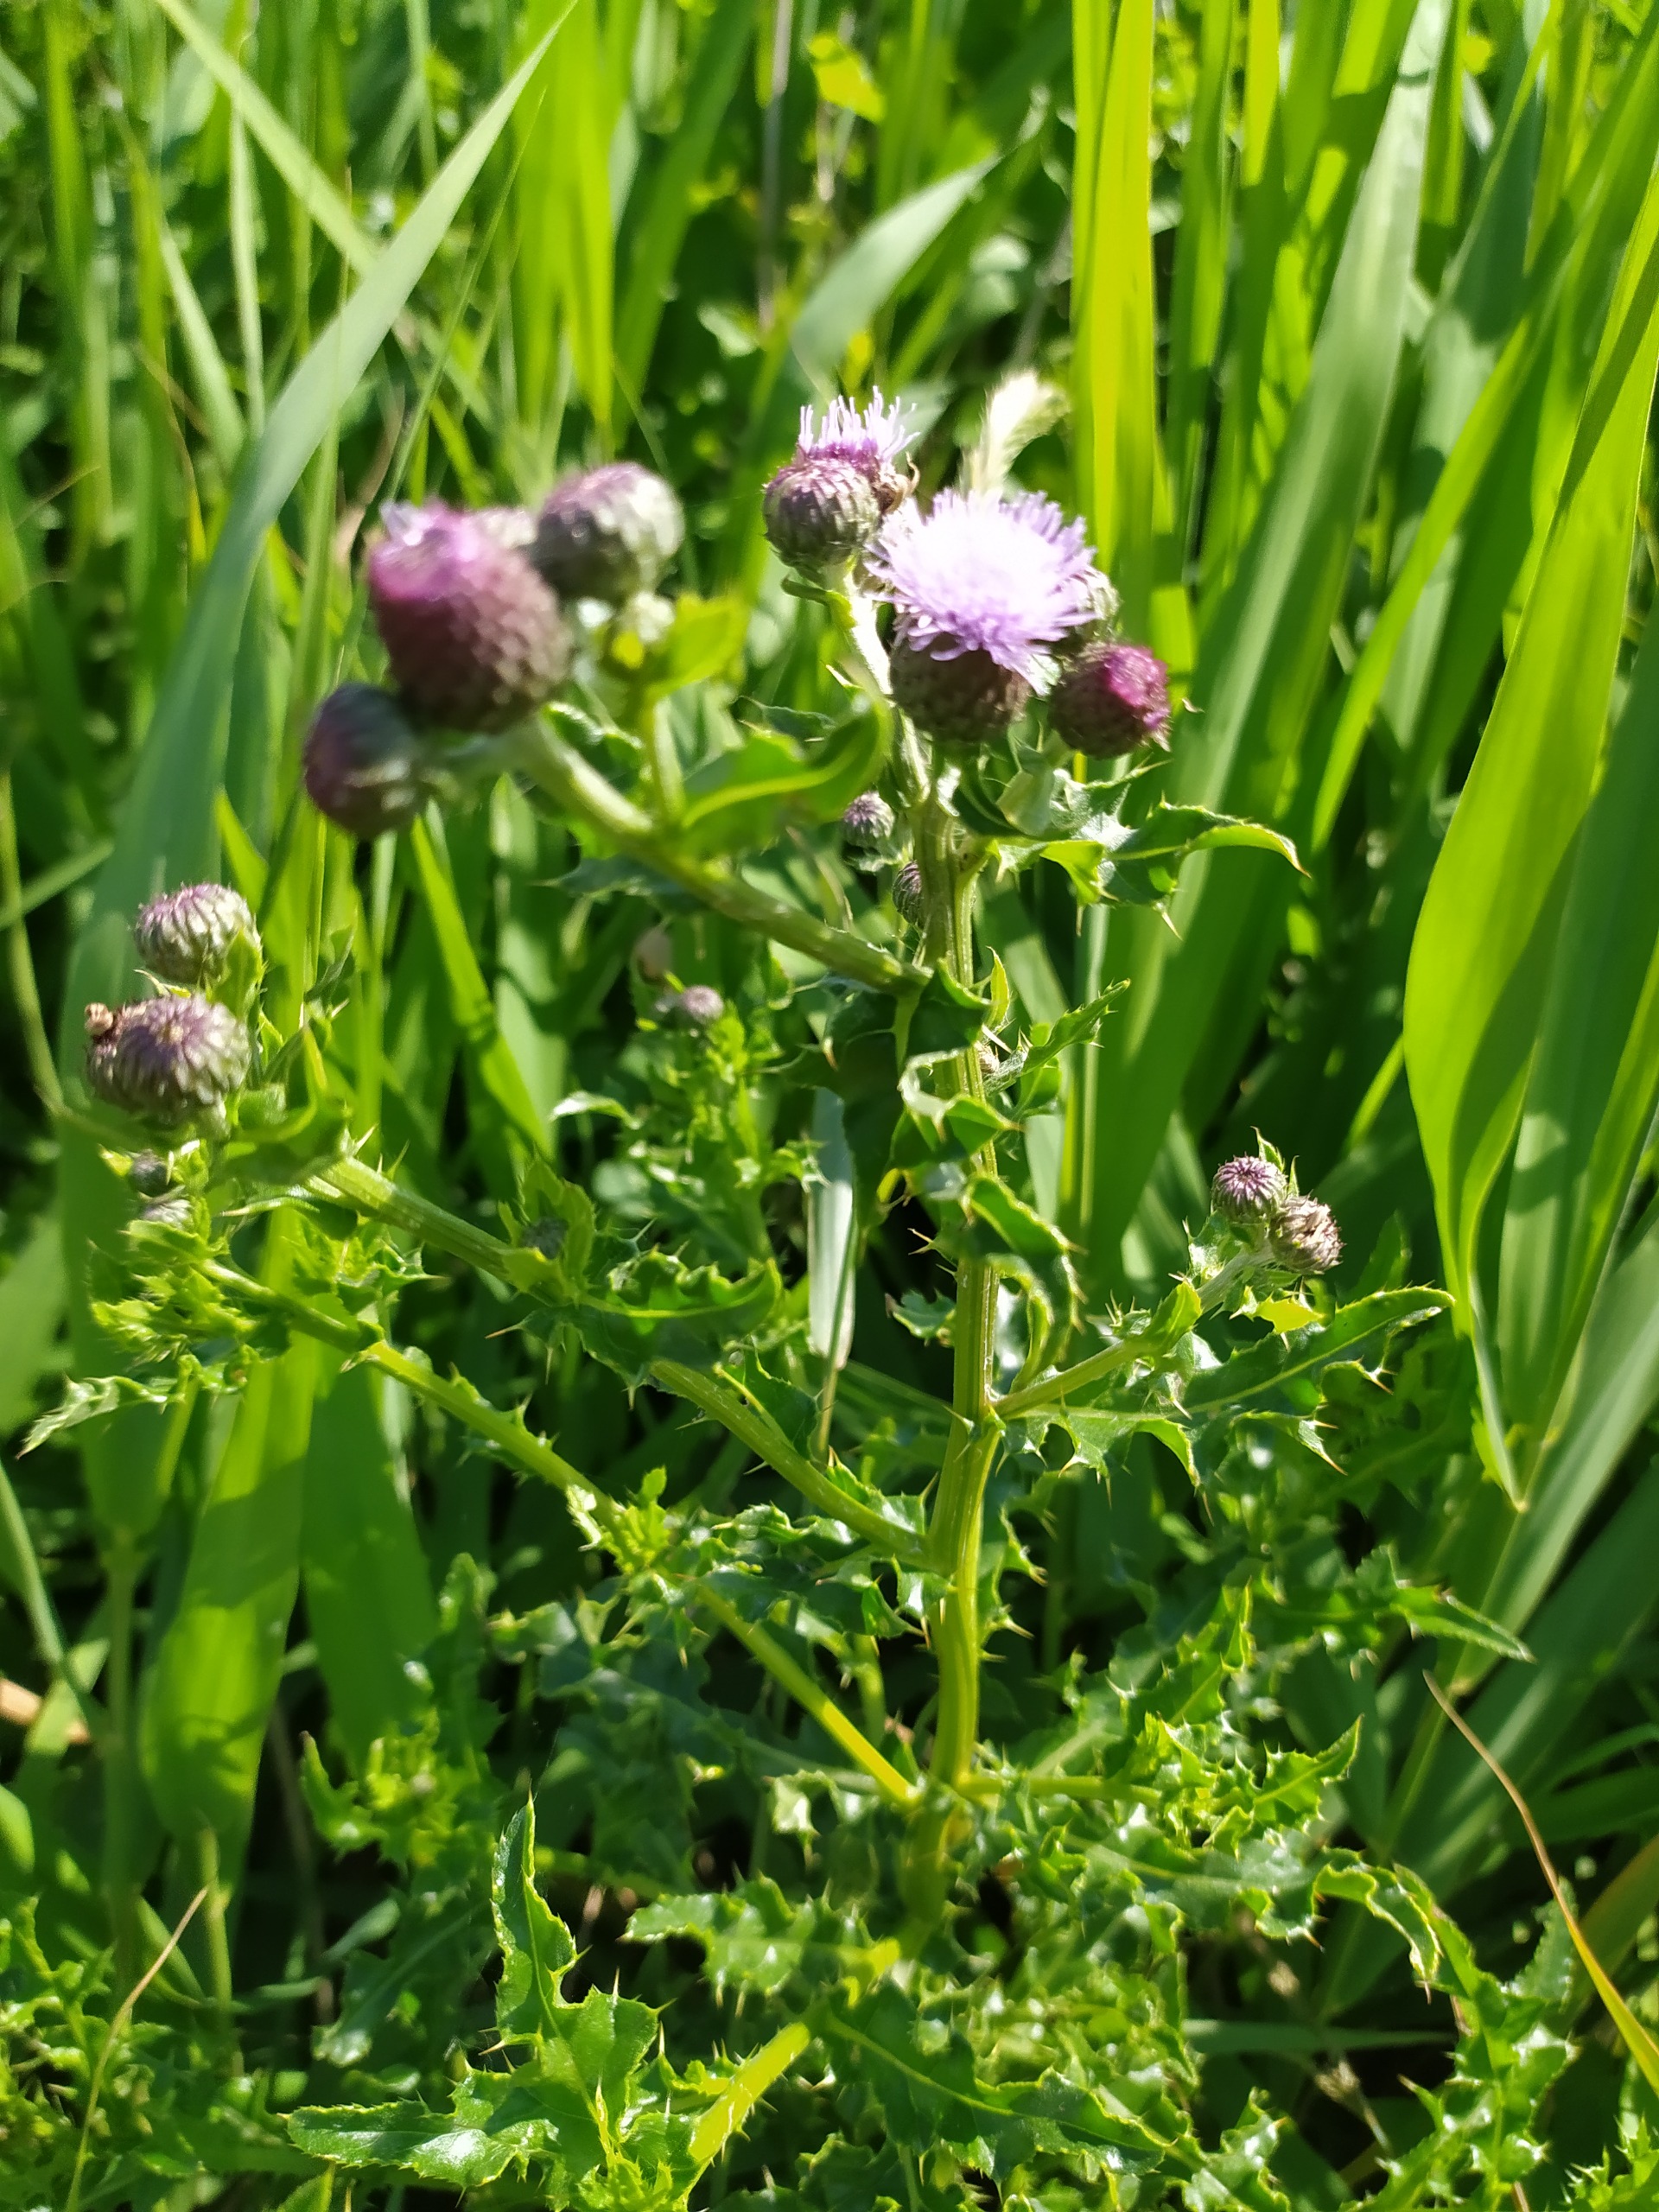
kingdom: Plantae
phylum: Tracheophyta
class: Magnoliopsida
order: Asterales
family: Asteraceae
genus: Cirsium
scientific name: Cirsium arvense
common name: Ager-tidsel
